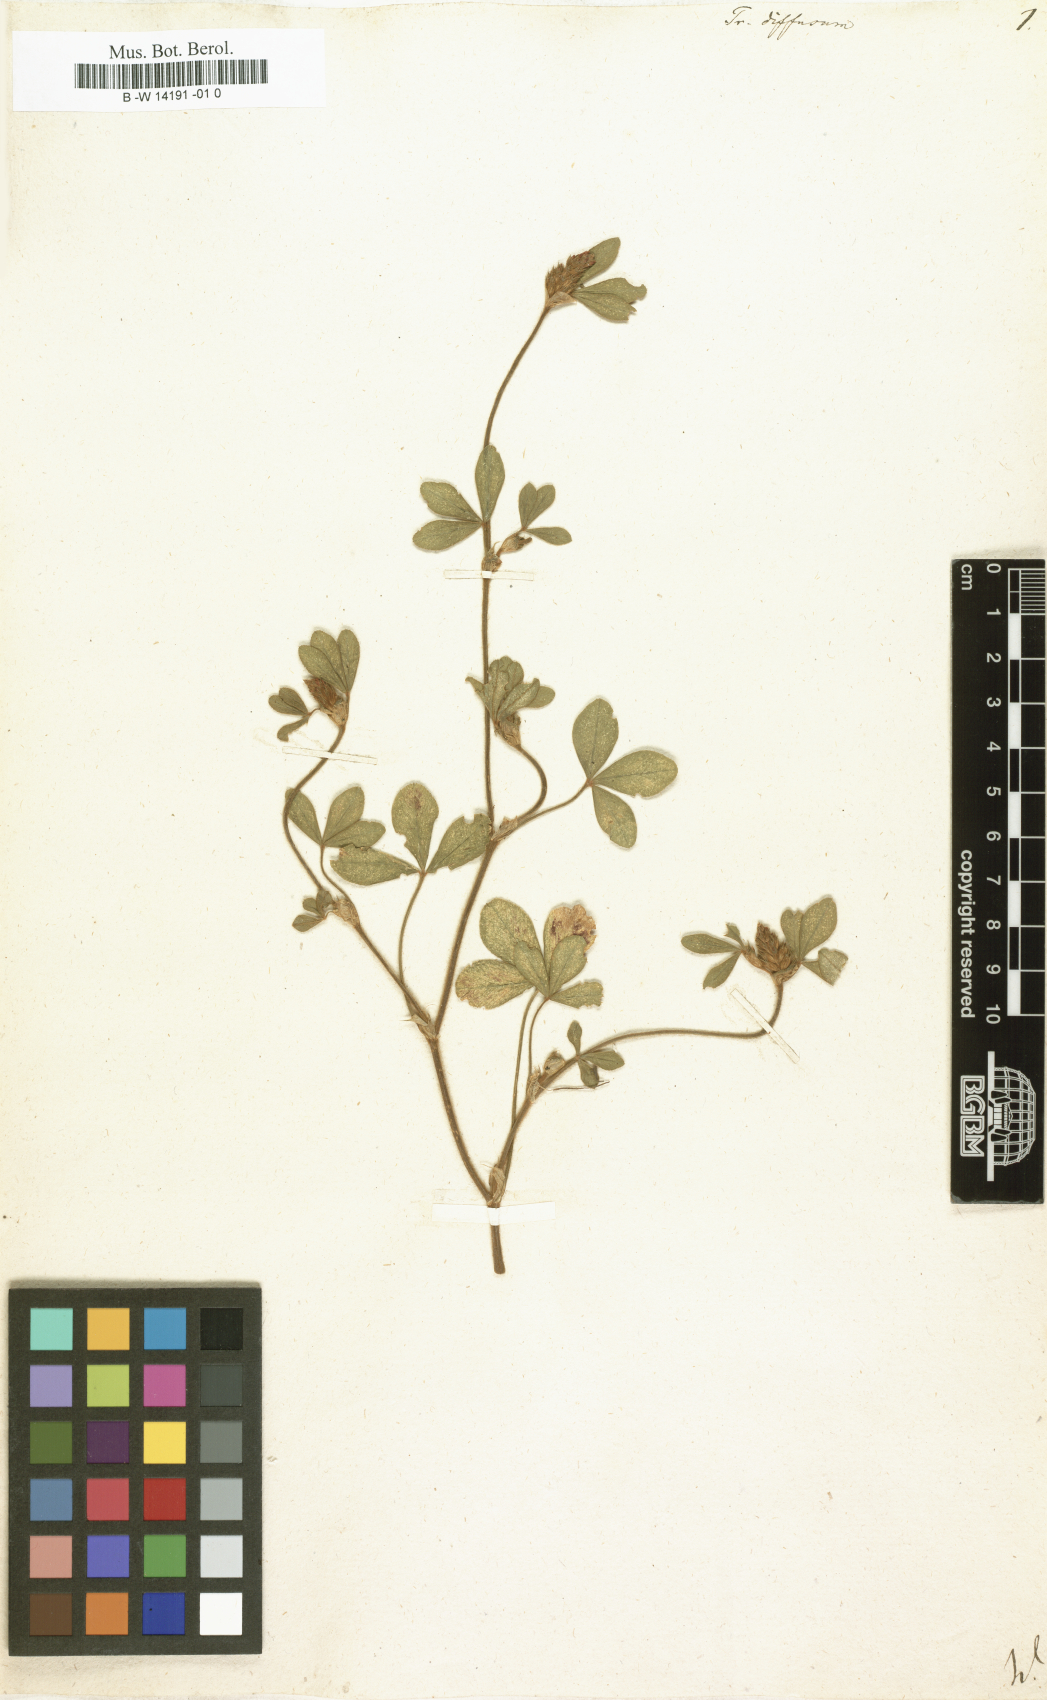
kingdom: Plantae
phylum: Tracheophyta
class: Magnoliopsida
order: Fabales
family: Fabaceae
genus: Trifolium
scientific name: Trifolium diffusum
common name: Diffuse clover
